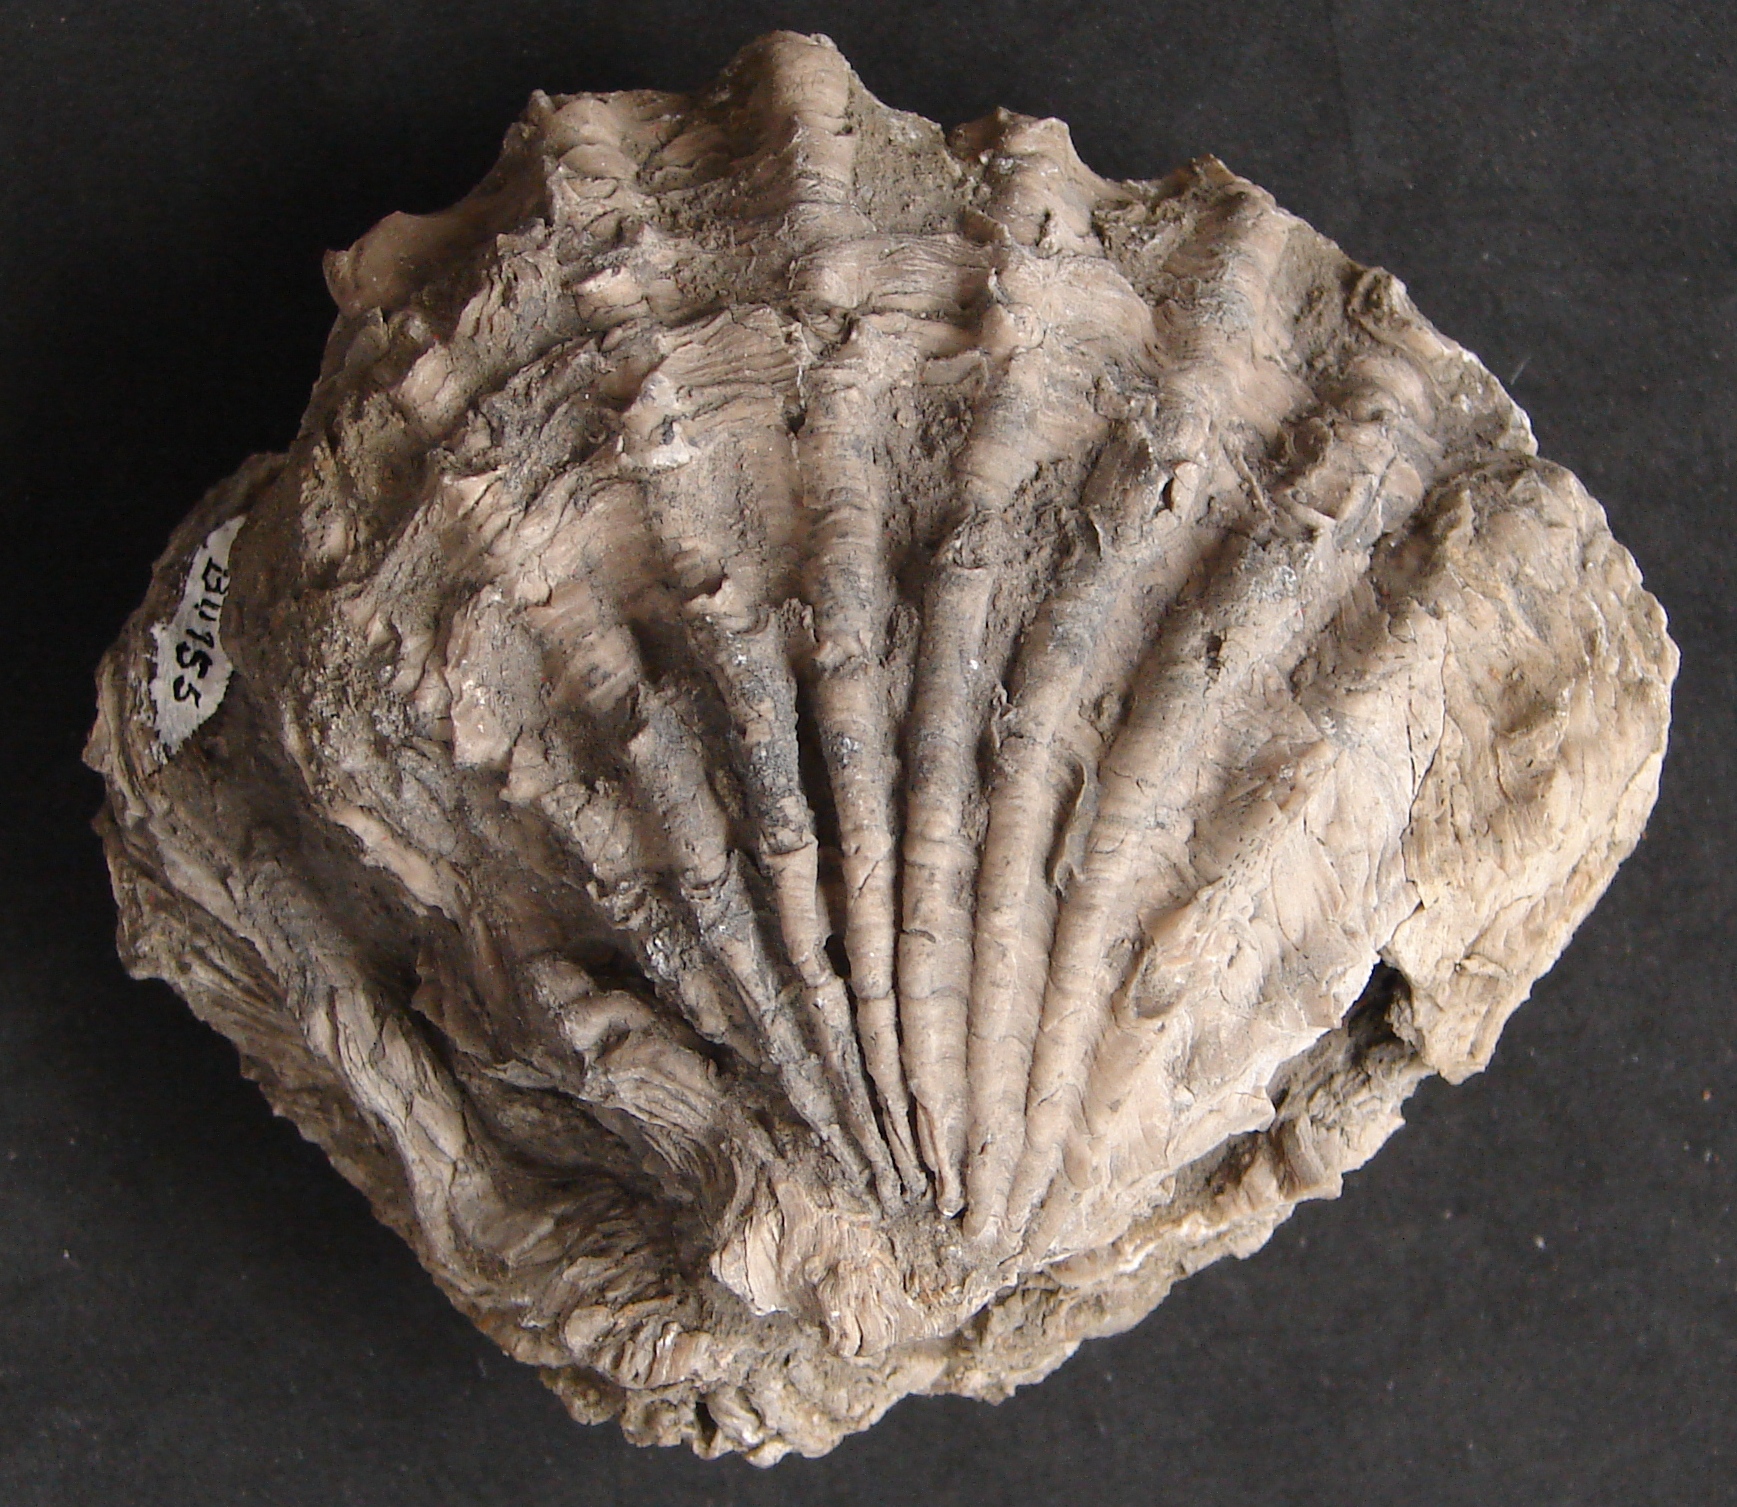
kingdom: Animalia
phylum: Mollusca
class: Bivalvia
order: Limida
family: Limidae
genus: Ctenostreon
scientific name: Ctenostreon Lima rugosum
